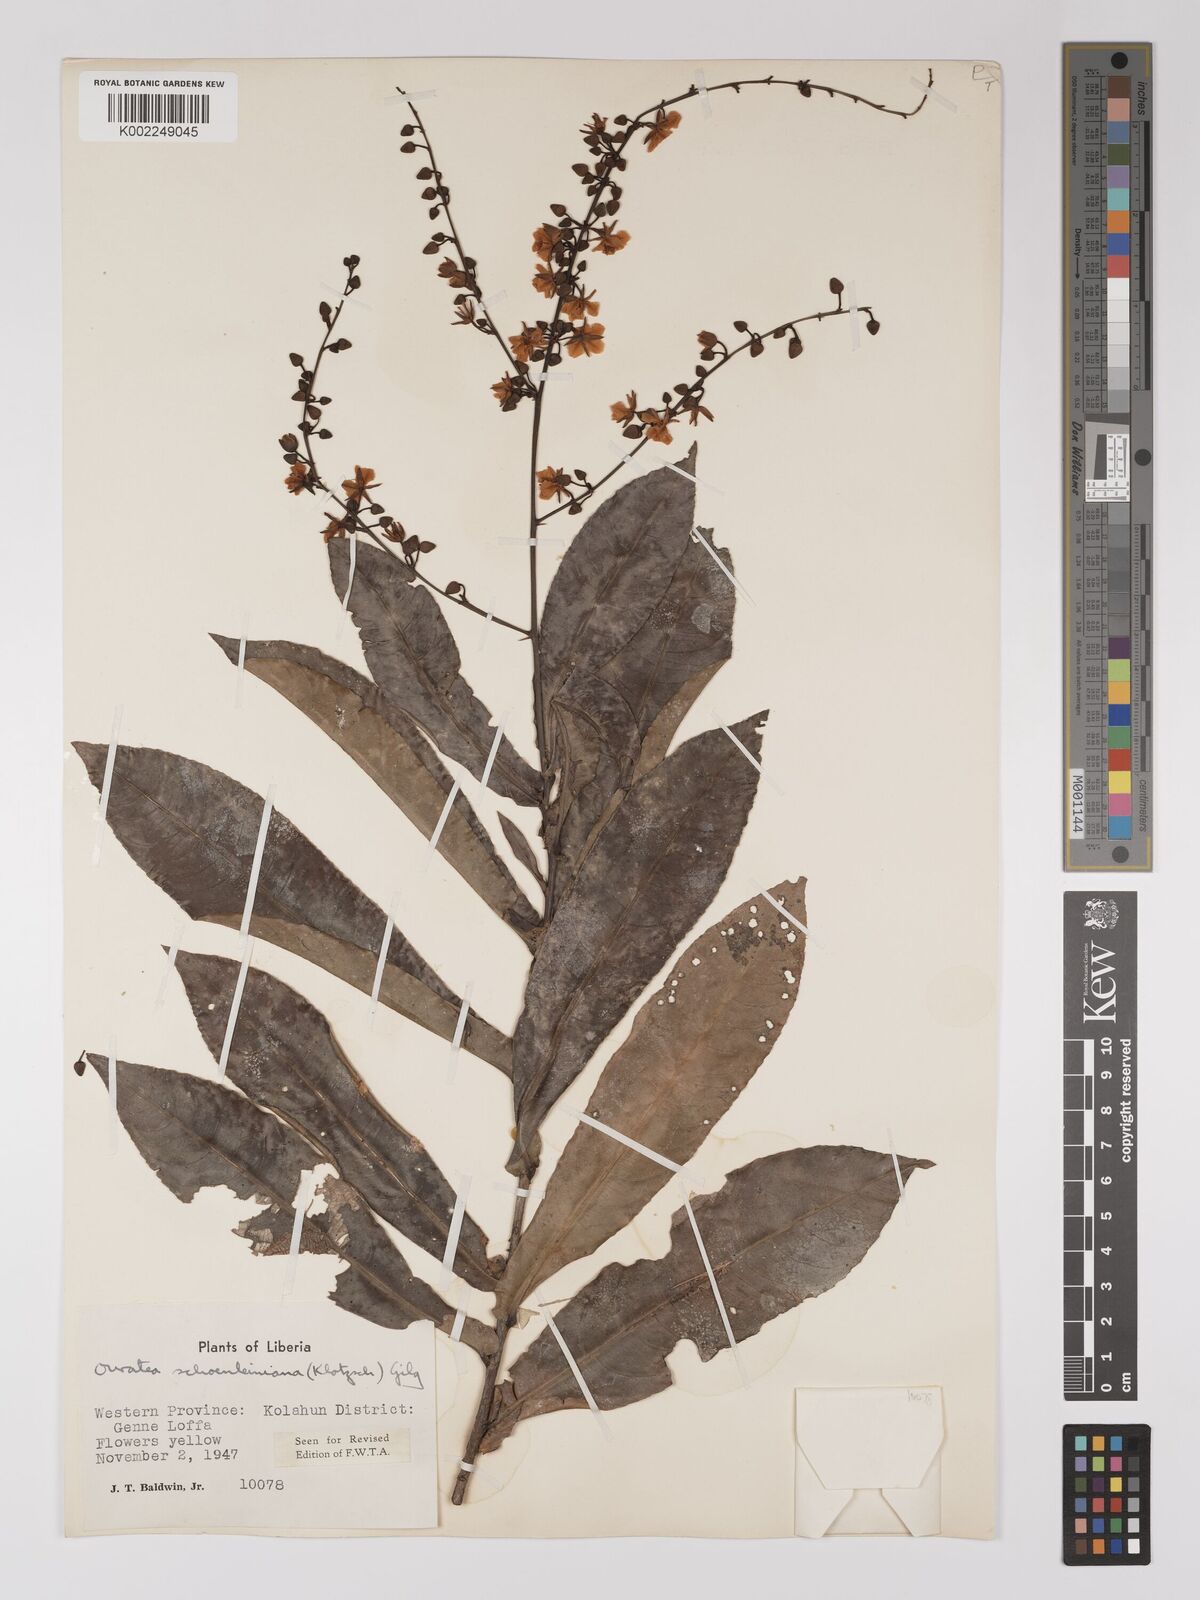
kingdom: Plantae
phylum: Tracheophyta
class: Magnoliopsida
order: Malpighiales
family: Ochnaceae
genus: Campylospermum
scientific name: Campylospermum schoenleinianum
